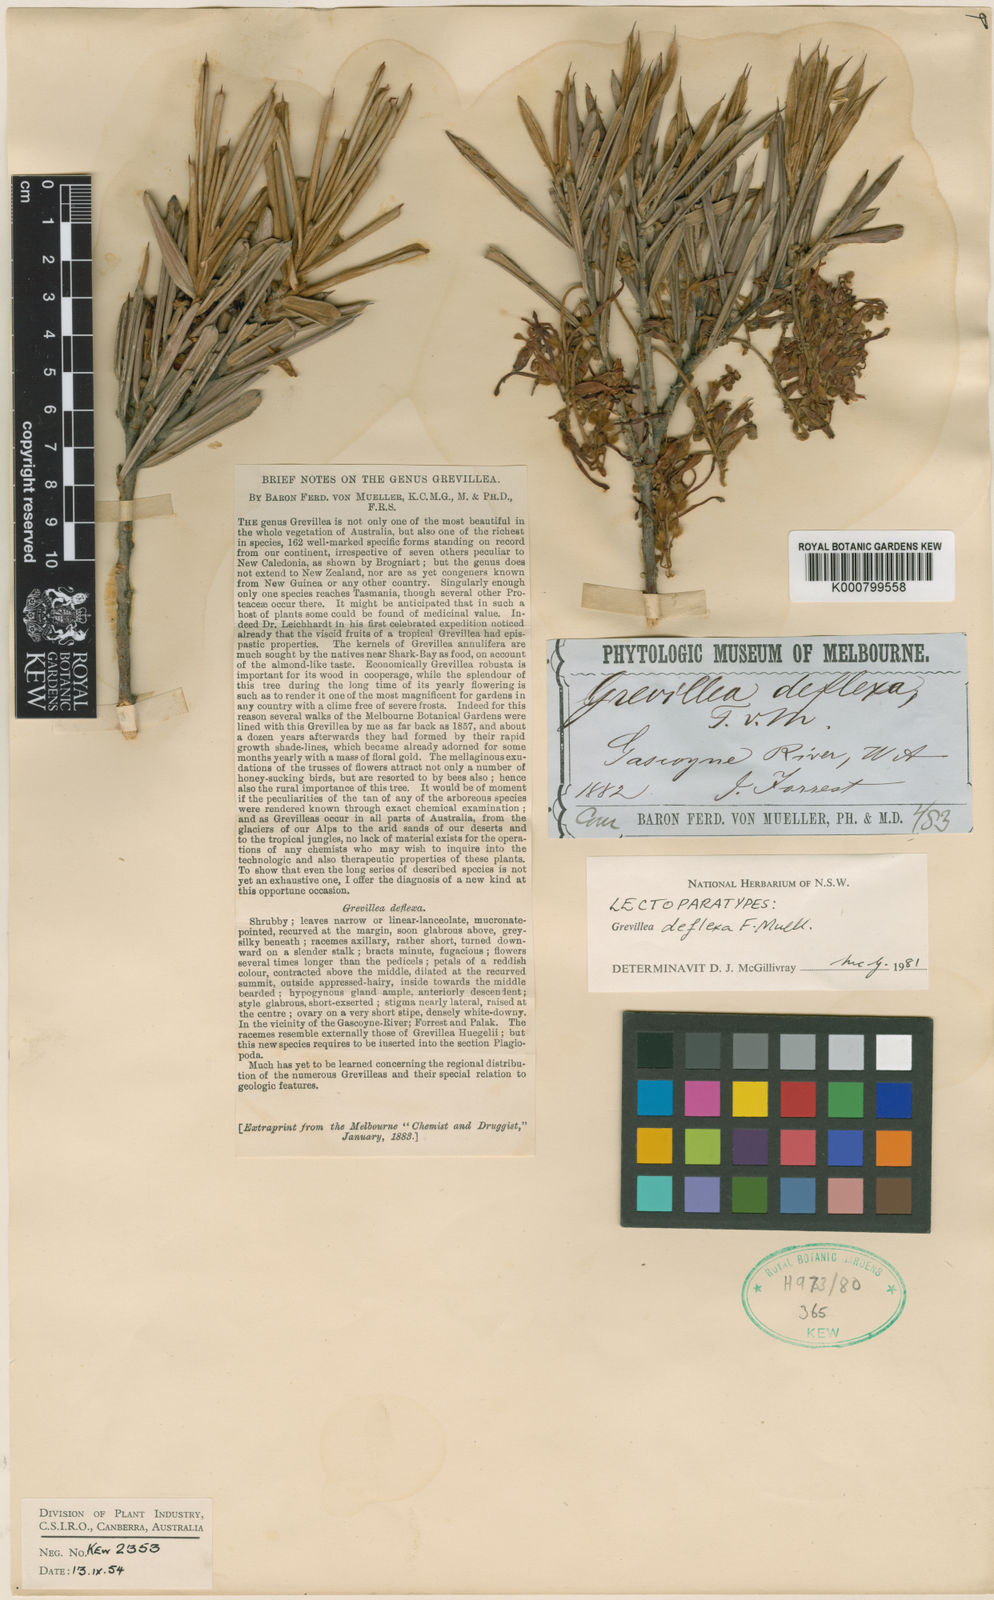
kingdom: Plantae
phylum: Tracheophyta
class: Magnoliopsida
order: Proteales
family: Proteaceae
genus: Grevillea
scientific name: Grevillea deflexa
